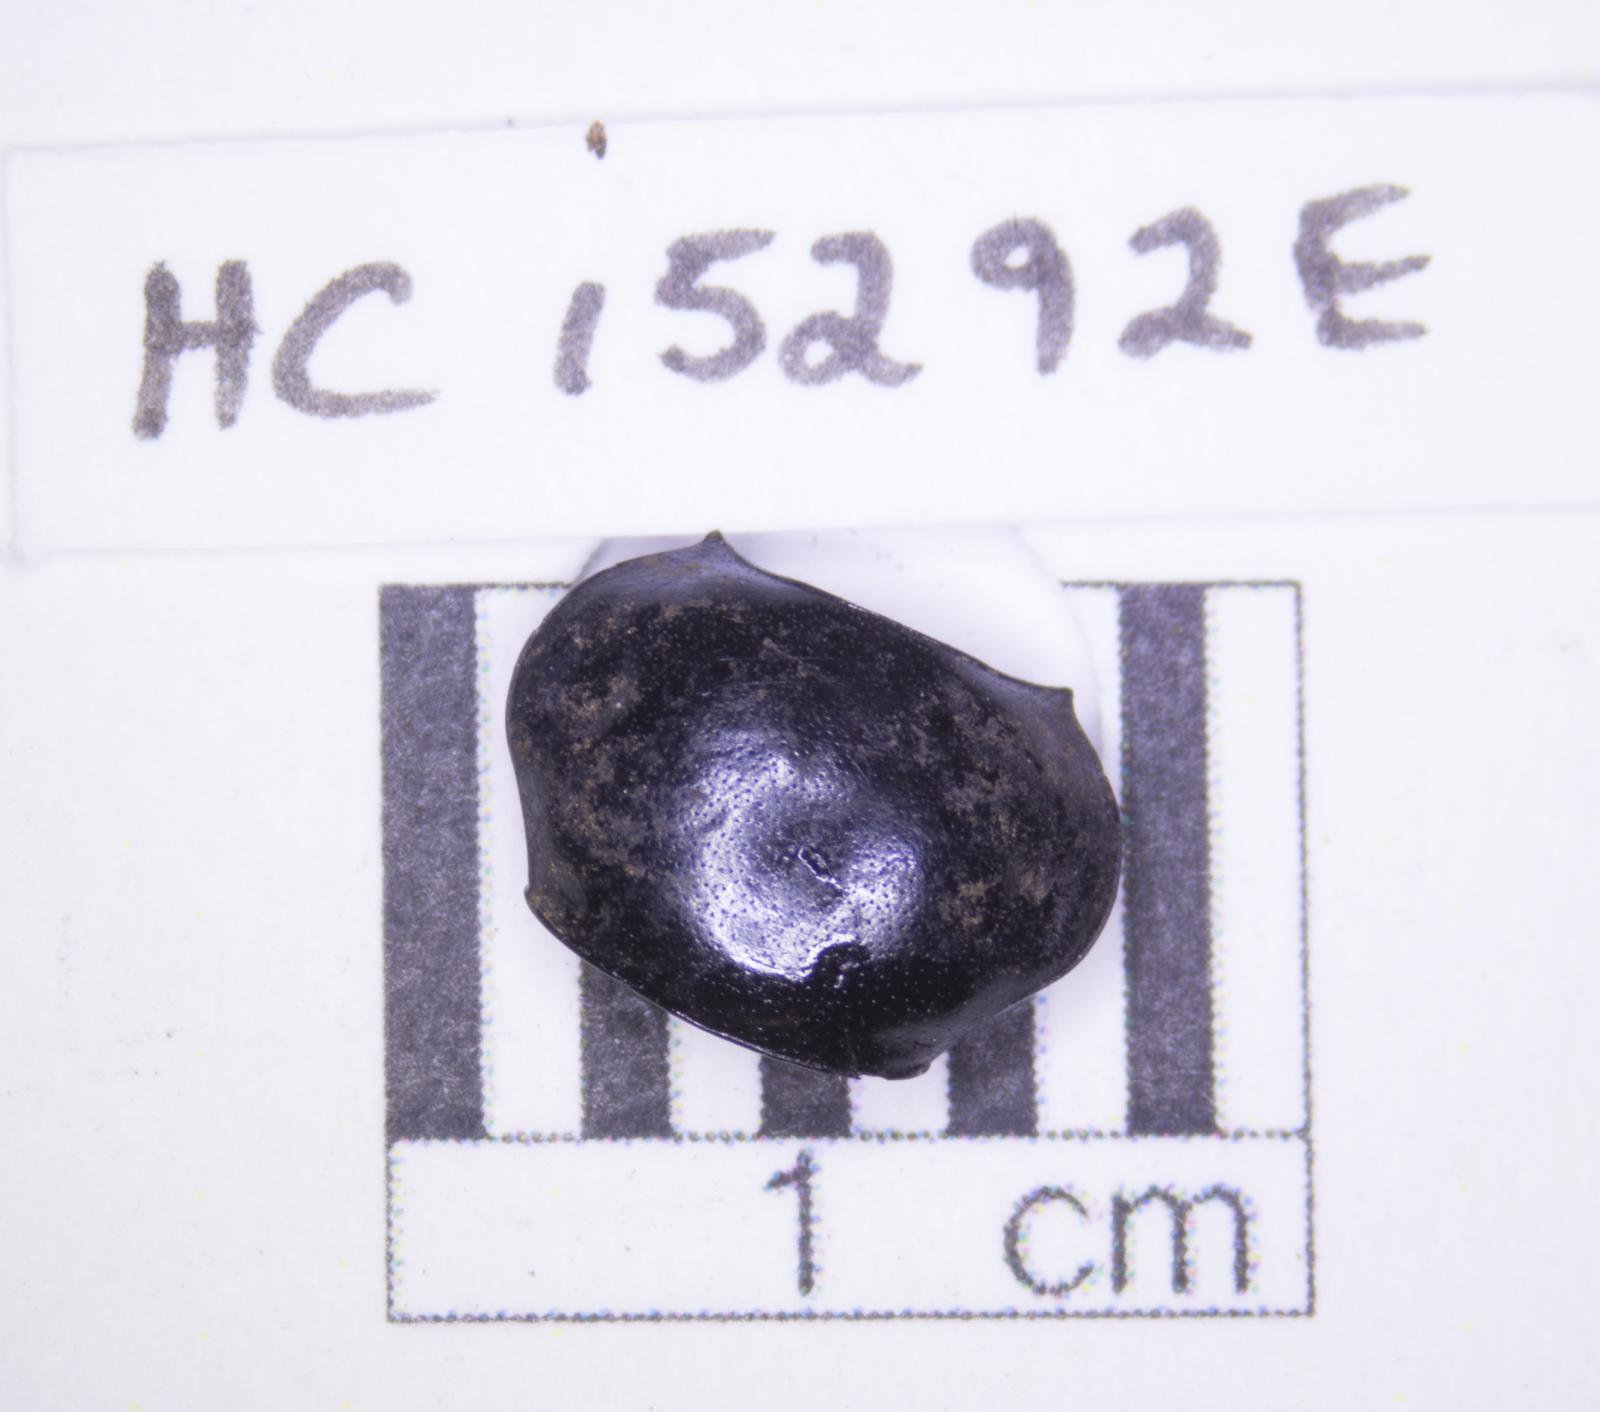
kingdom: Animalia
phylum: Arthropoda
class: Insecta
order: Coleoptera
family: Tenebrionidae
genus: Eleodes
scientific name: Eleodes acuticauda
